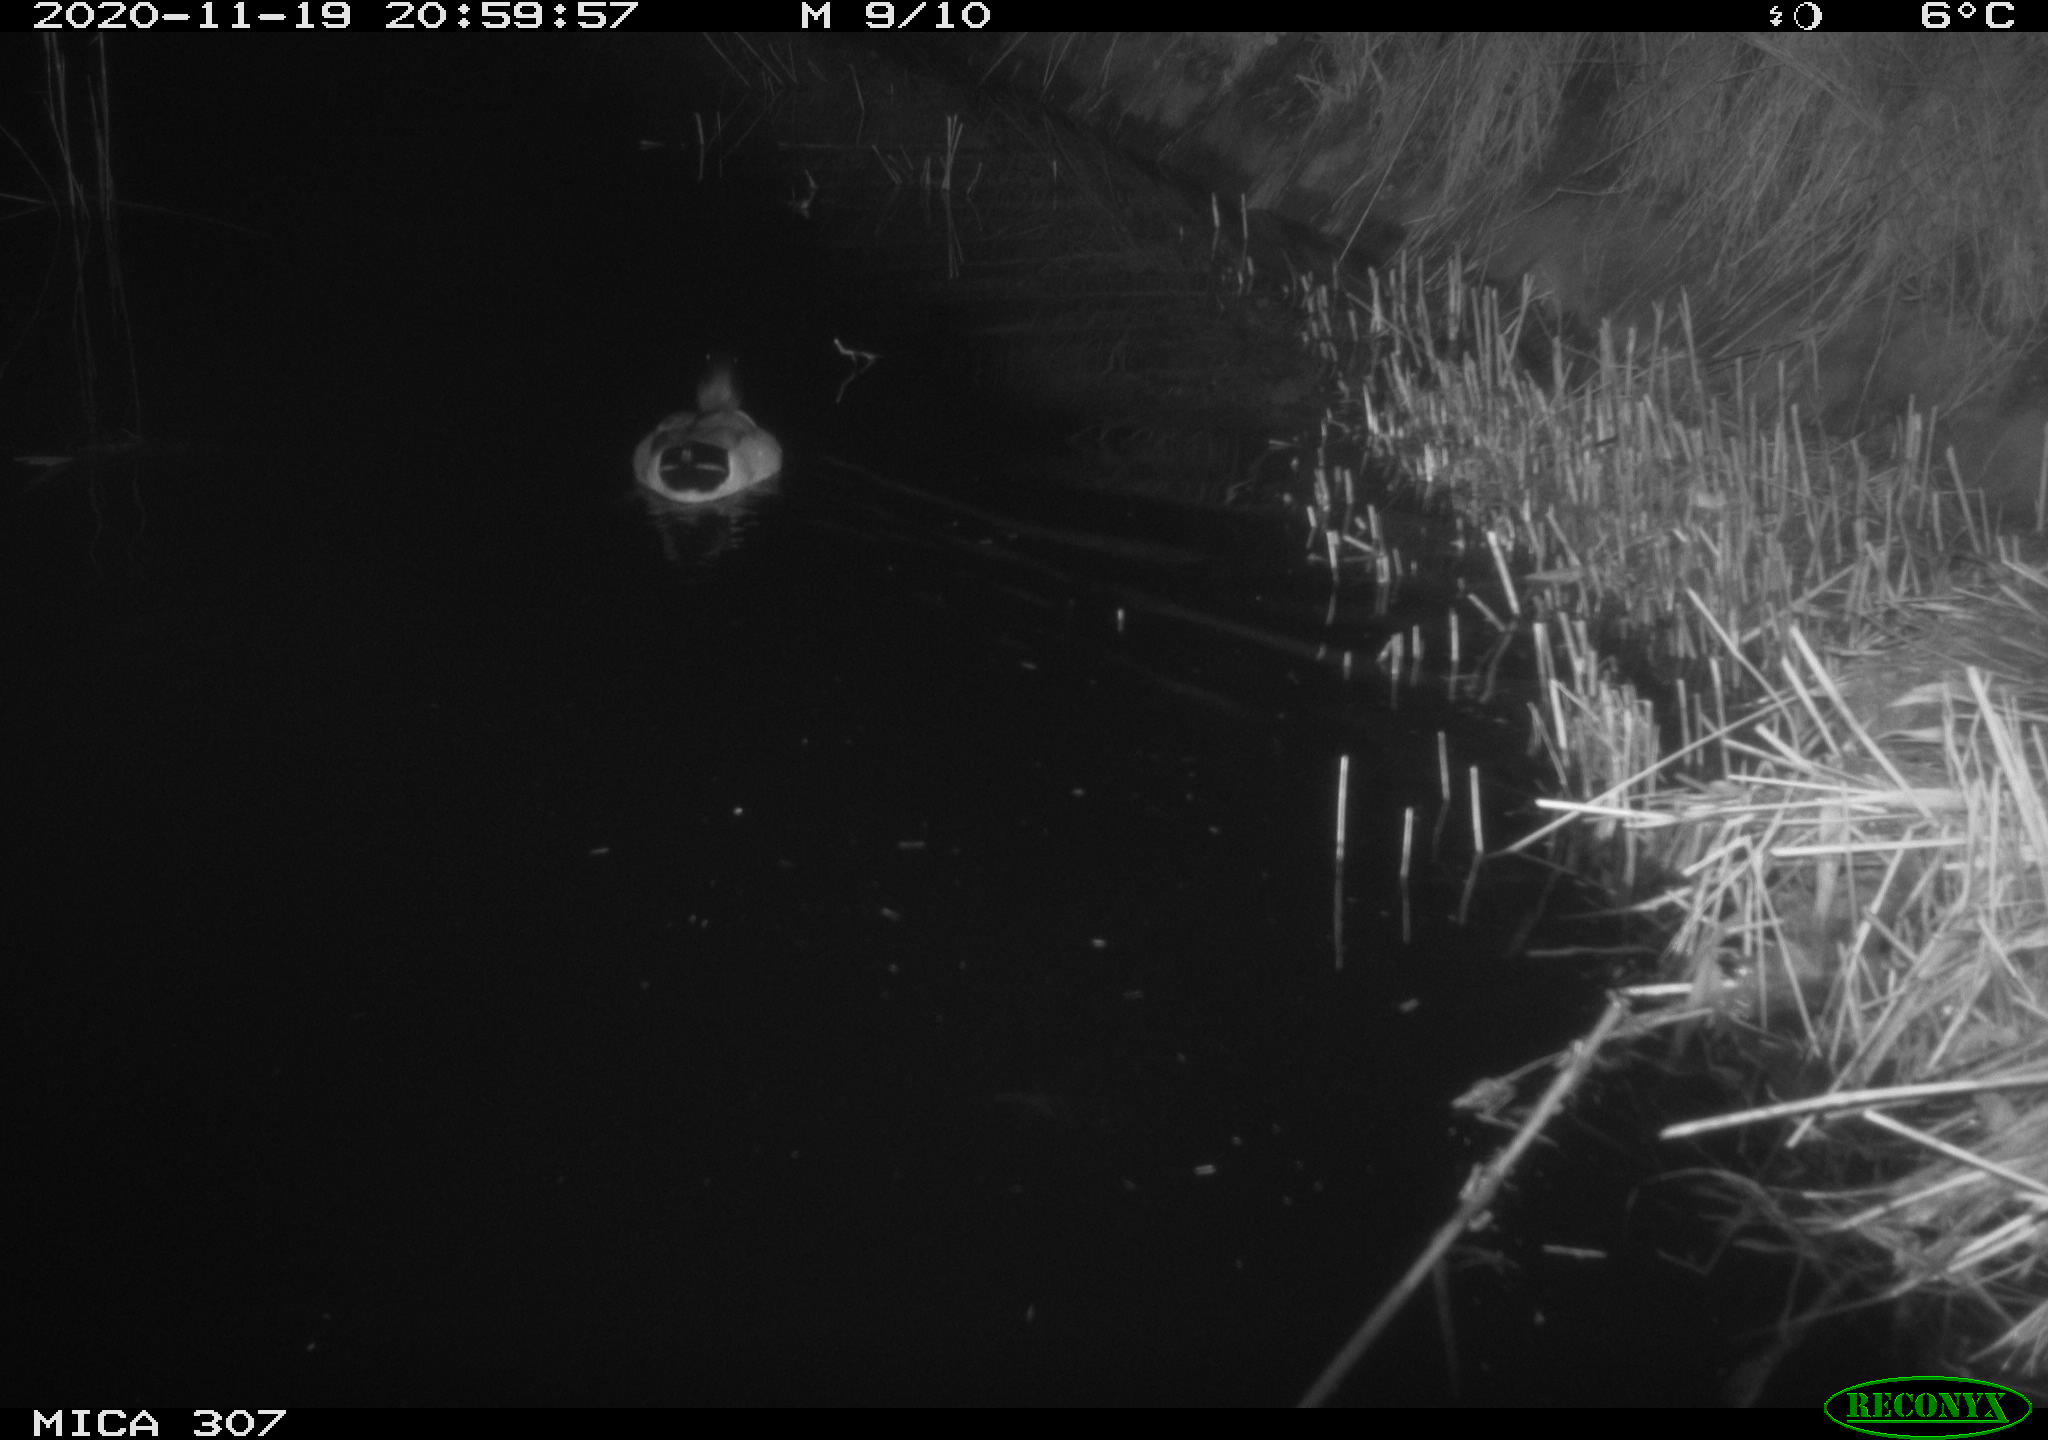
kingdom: Animalia
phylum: Chordata
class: Aves
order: Anseriformes
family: Anatidae
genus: Anas
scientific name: Anas platyrhynchos
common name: Mallard
